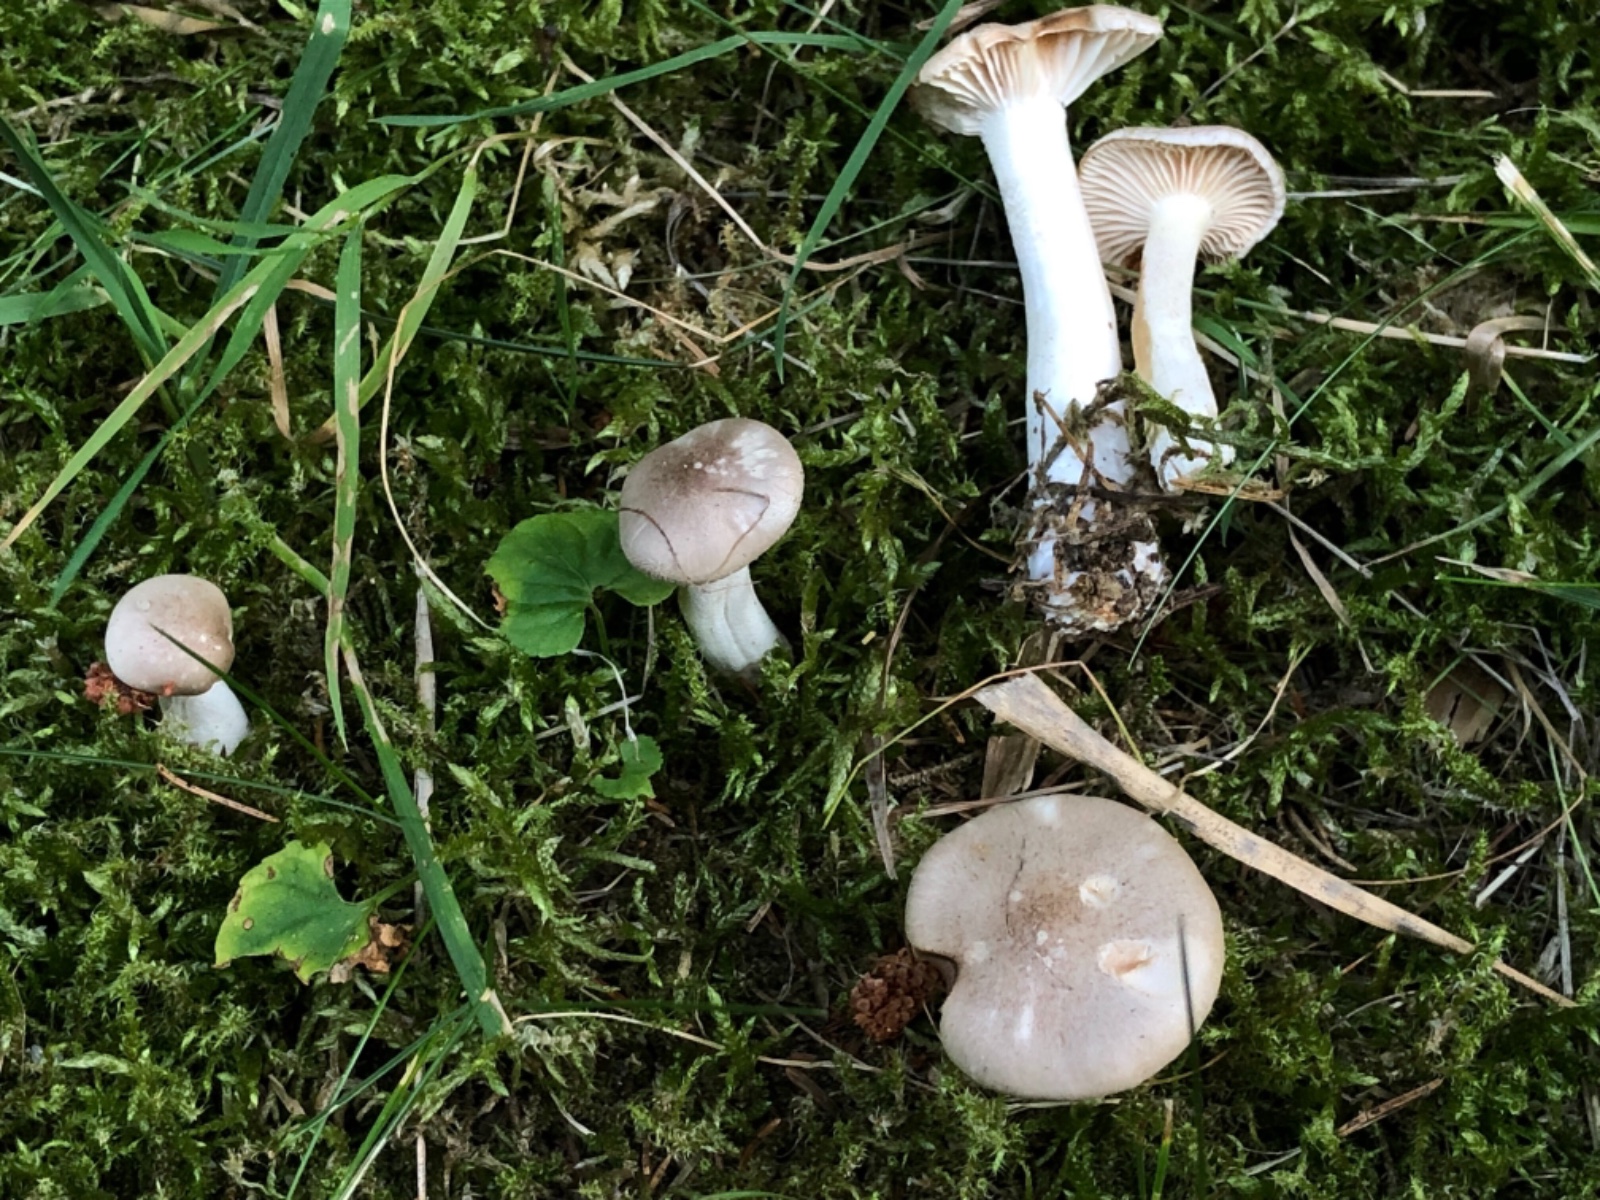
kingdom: Fungi
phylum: Basidiomycota
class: Agaricomycetes
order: Agaricales
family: Hygrophoraceae
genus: Hygrophorus
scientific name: Hygrophorus agathosmus
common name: vellugtende sneglehat
